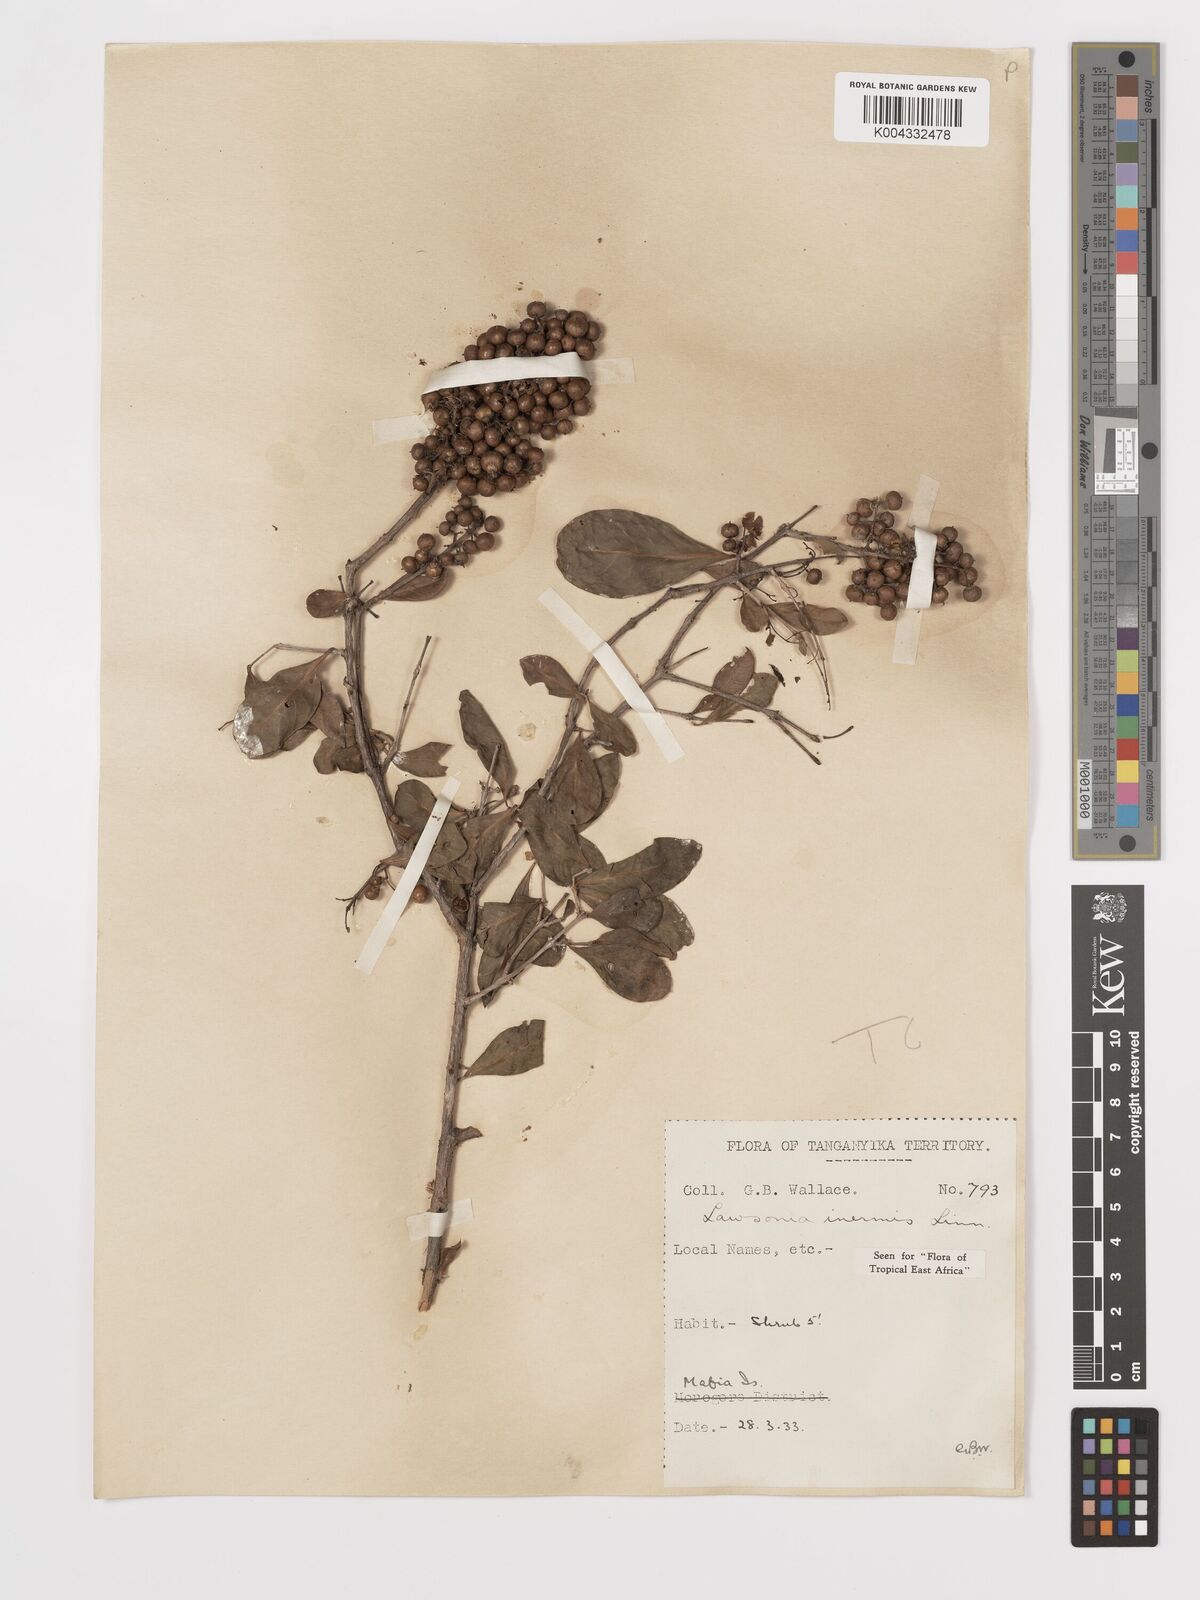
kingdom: Plantae
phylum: Tracheophyta
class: Magnoliopsida
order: Myrtales
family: Lythraceae
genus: Lawsonia
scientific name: Lawsonia inermis
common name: Henna
